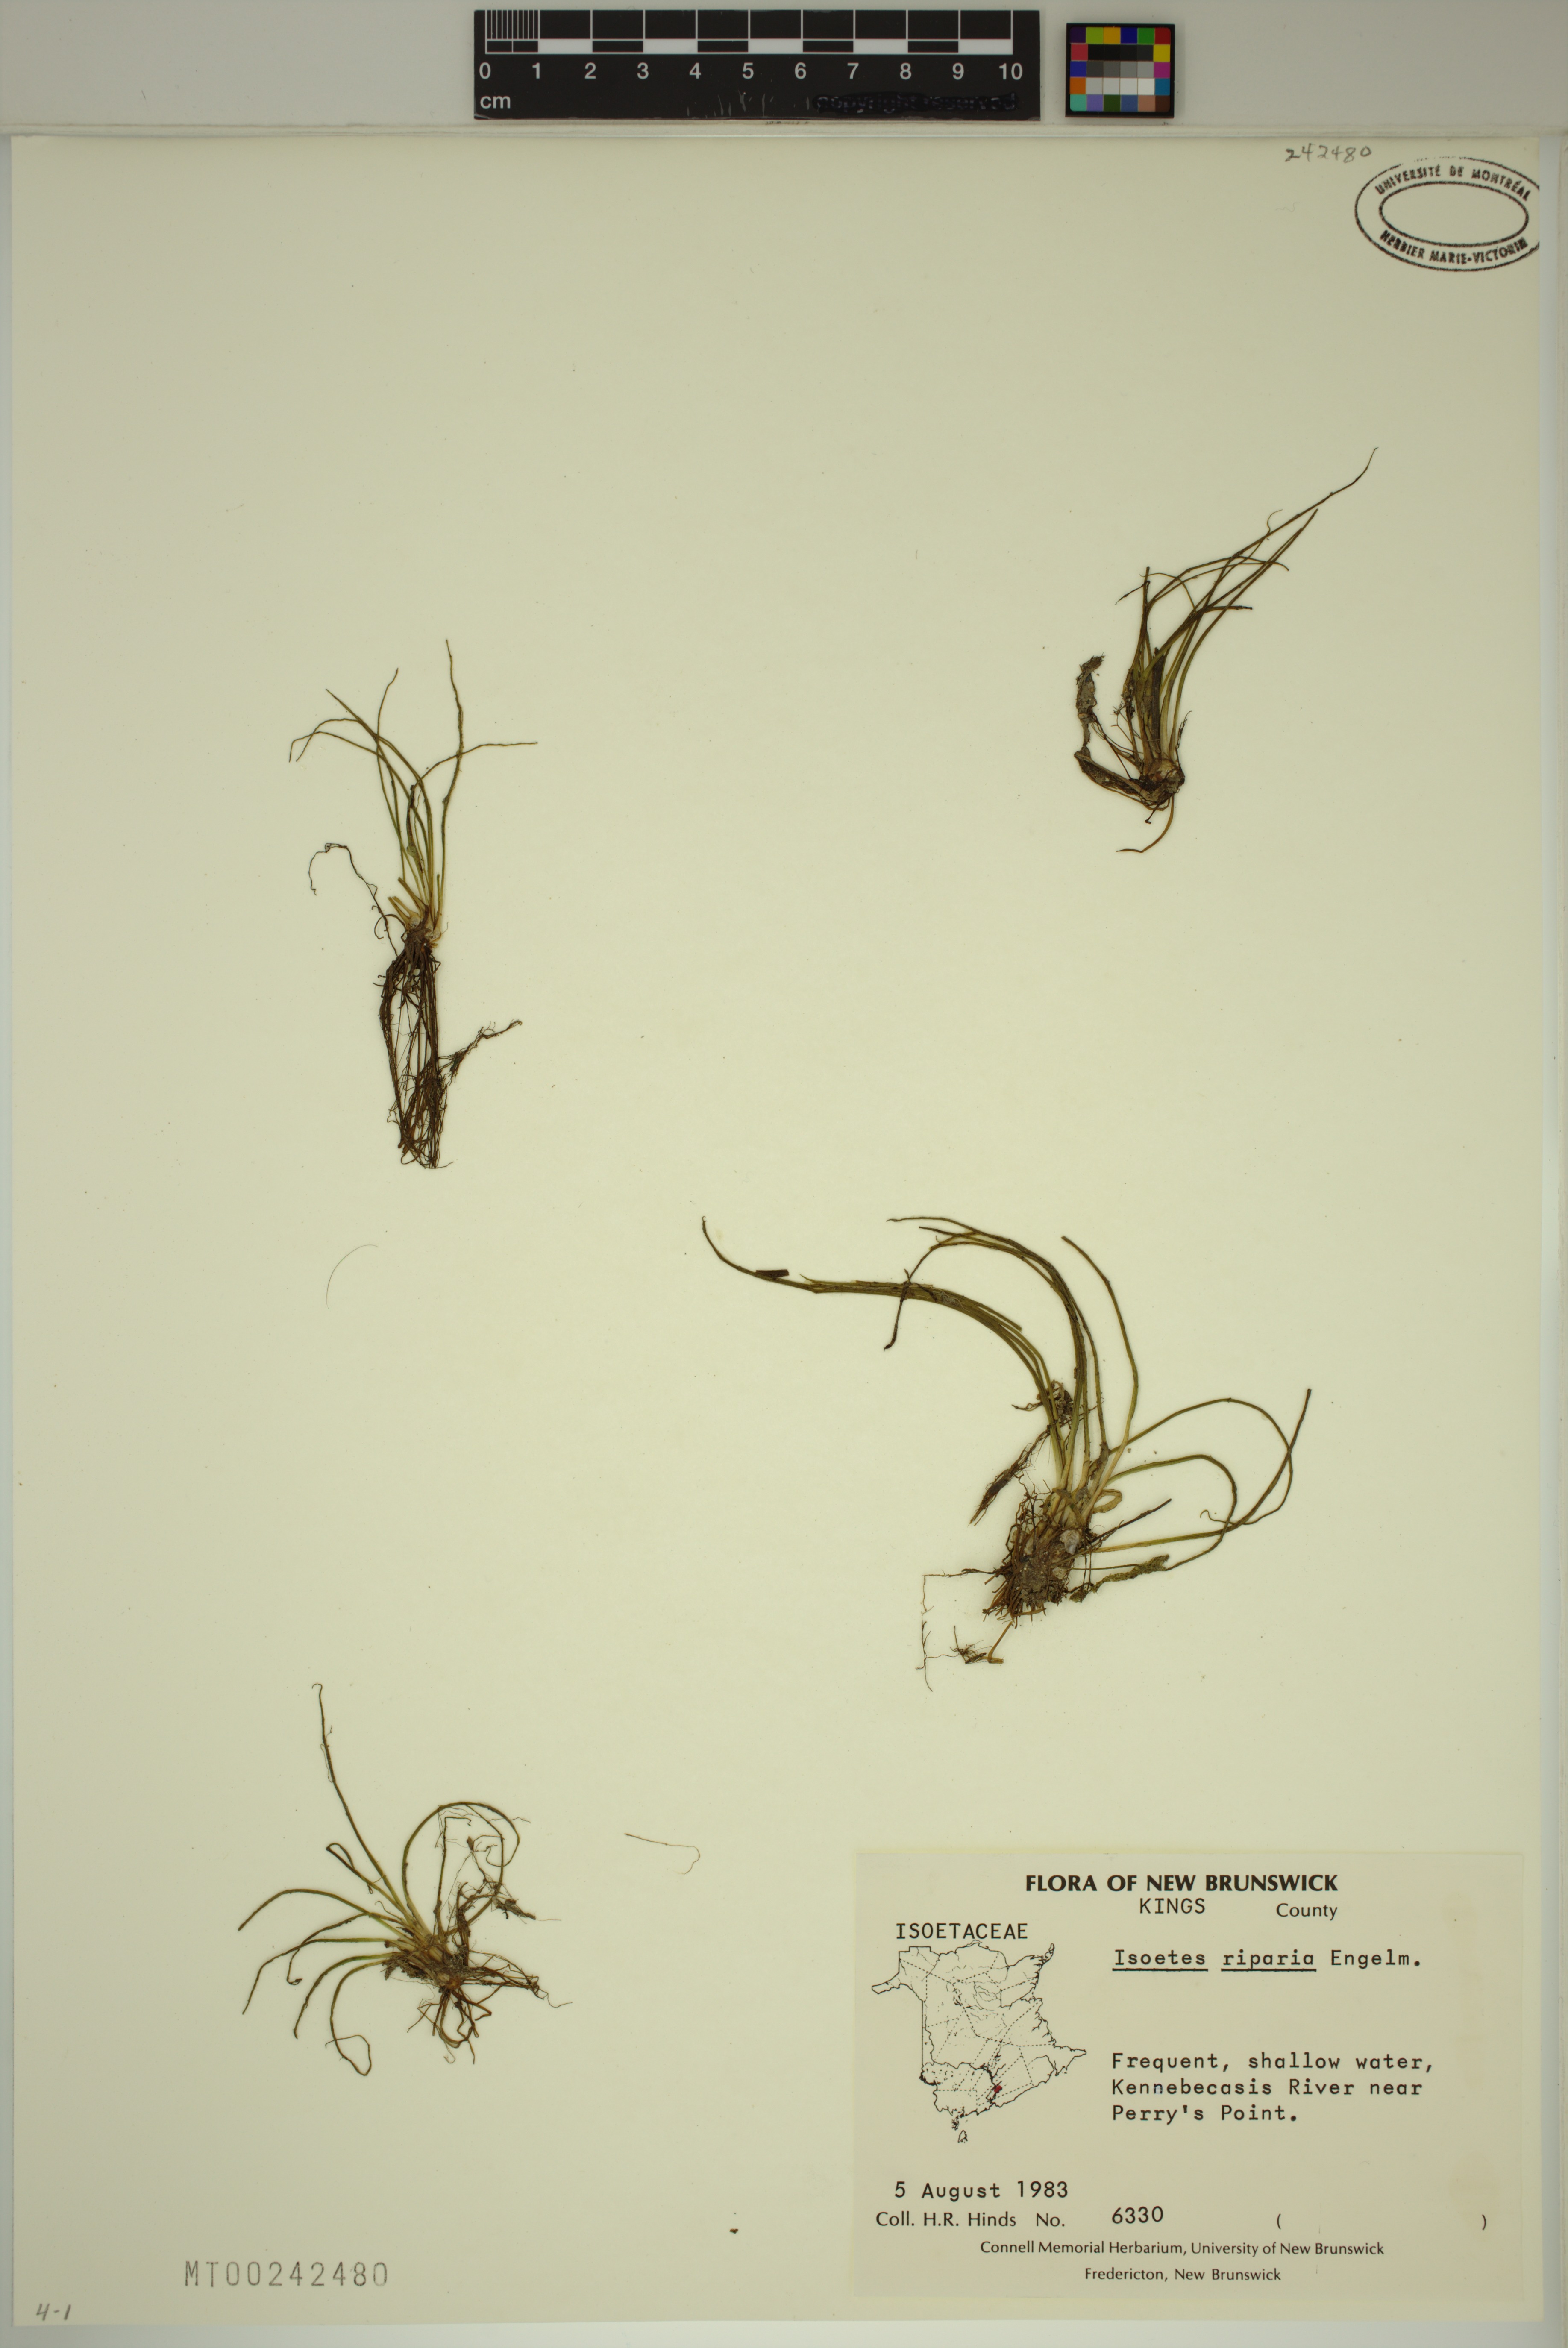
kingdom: Plantae
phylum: Tracheophyta
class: Lycopodiopsida
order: Isoetales
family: Isoetaceae
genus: Isoetes
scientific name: Isoetes tuckermanii
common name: Tuckerman's quillwort
